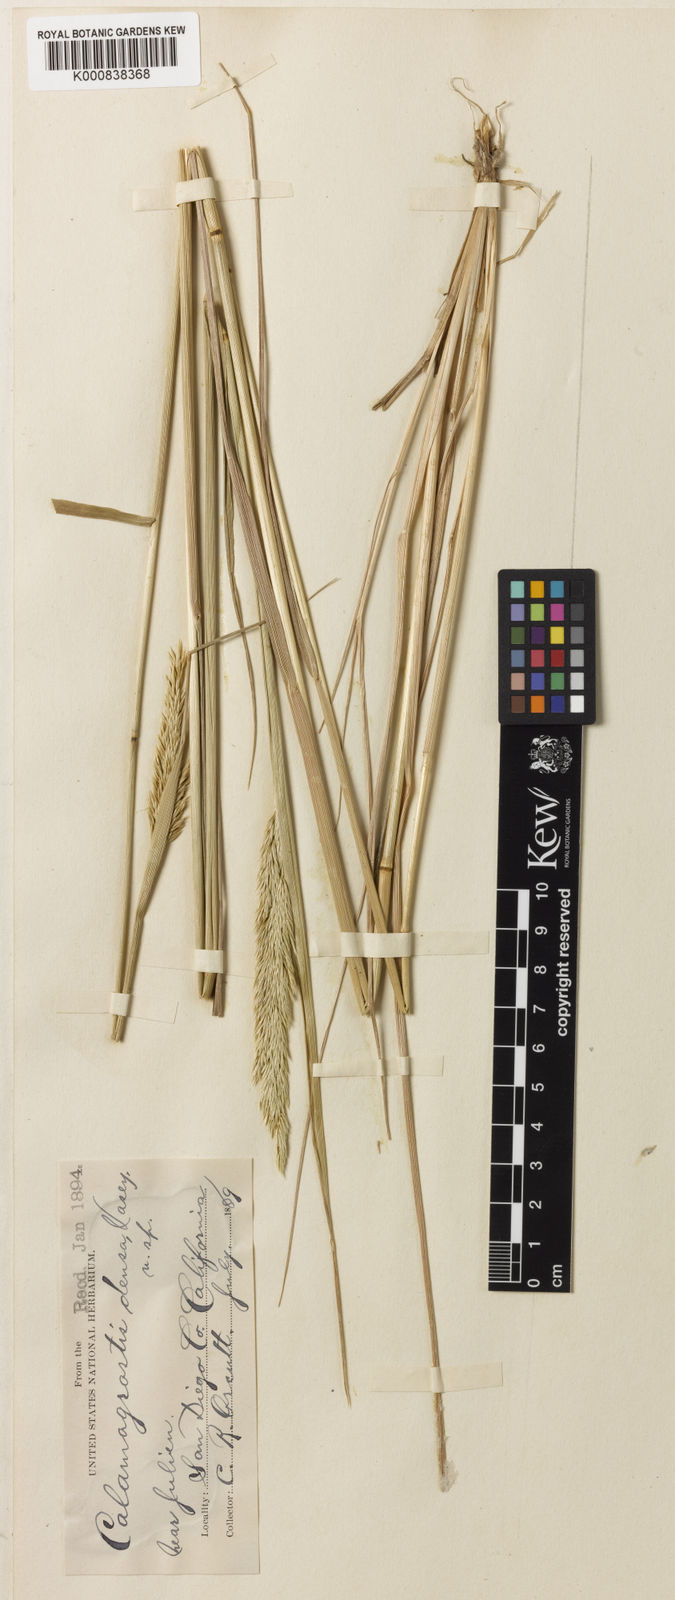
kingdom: Plantae
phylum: Tracheophyta
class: Liliopsida
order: Poales
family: Poaceae
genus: Calamagrostis
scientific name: Calamagrostis koelerioides
